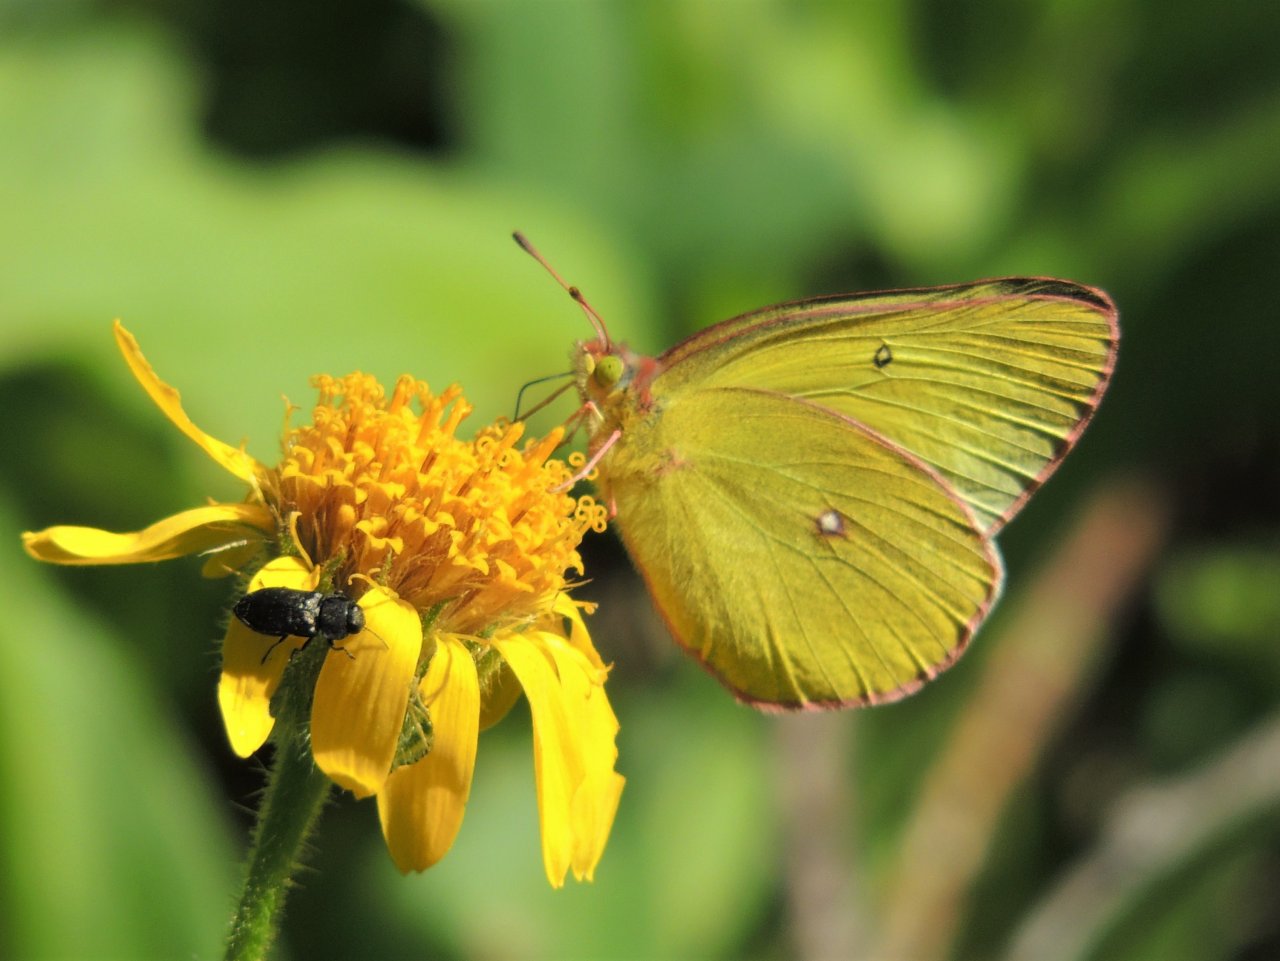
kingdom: Animalia
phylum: Arthropoda
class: Insecta
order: Lepidoptera
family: Pieridae
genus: Colias
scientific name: Colias eurytheme
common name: Orange Sulphur
